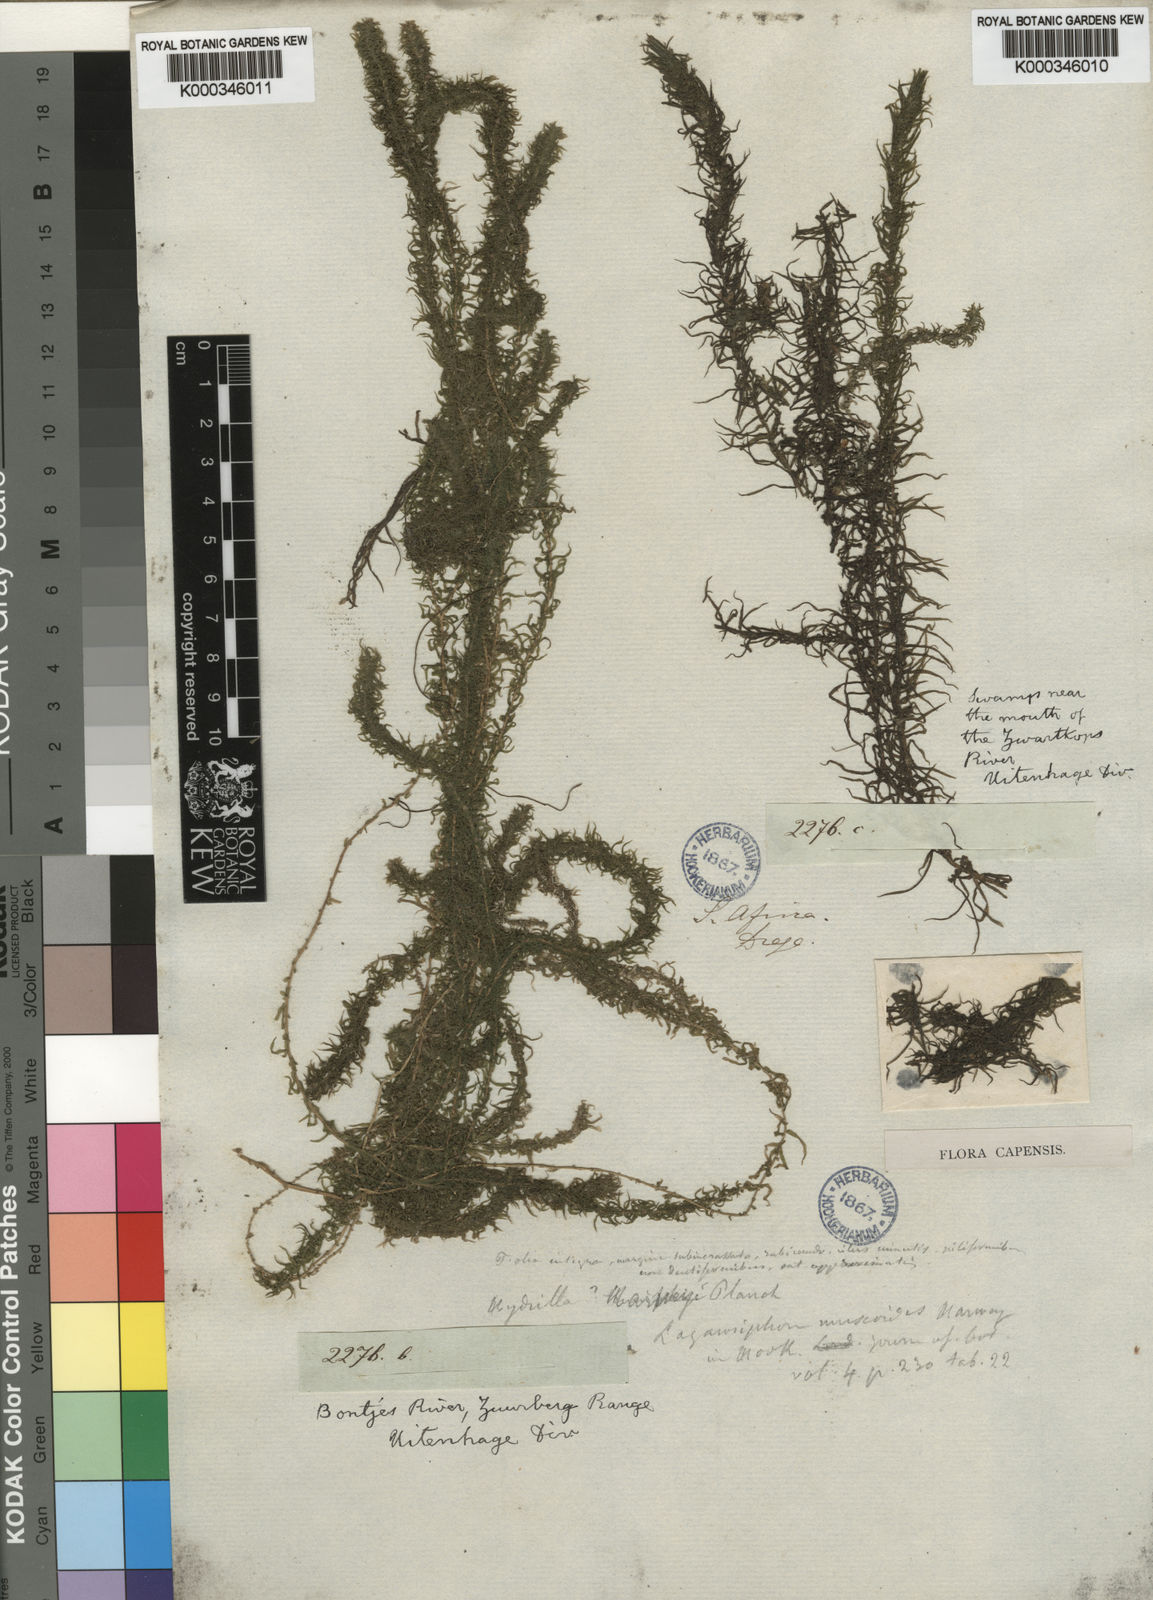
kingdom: Plantae
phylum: Tracheophyta
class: Liliopsida
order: Alismatales
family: Hydrocharitaceae
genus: Lagarosiphon
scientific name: Lagarosiphon muscoides
